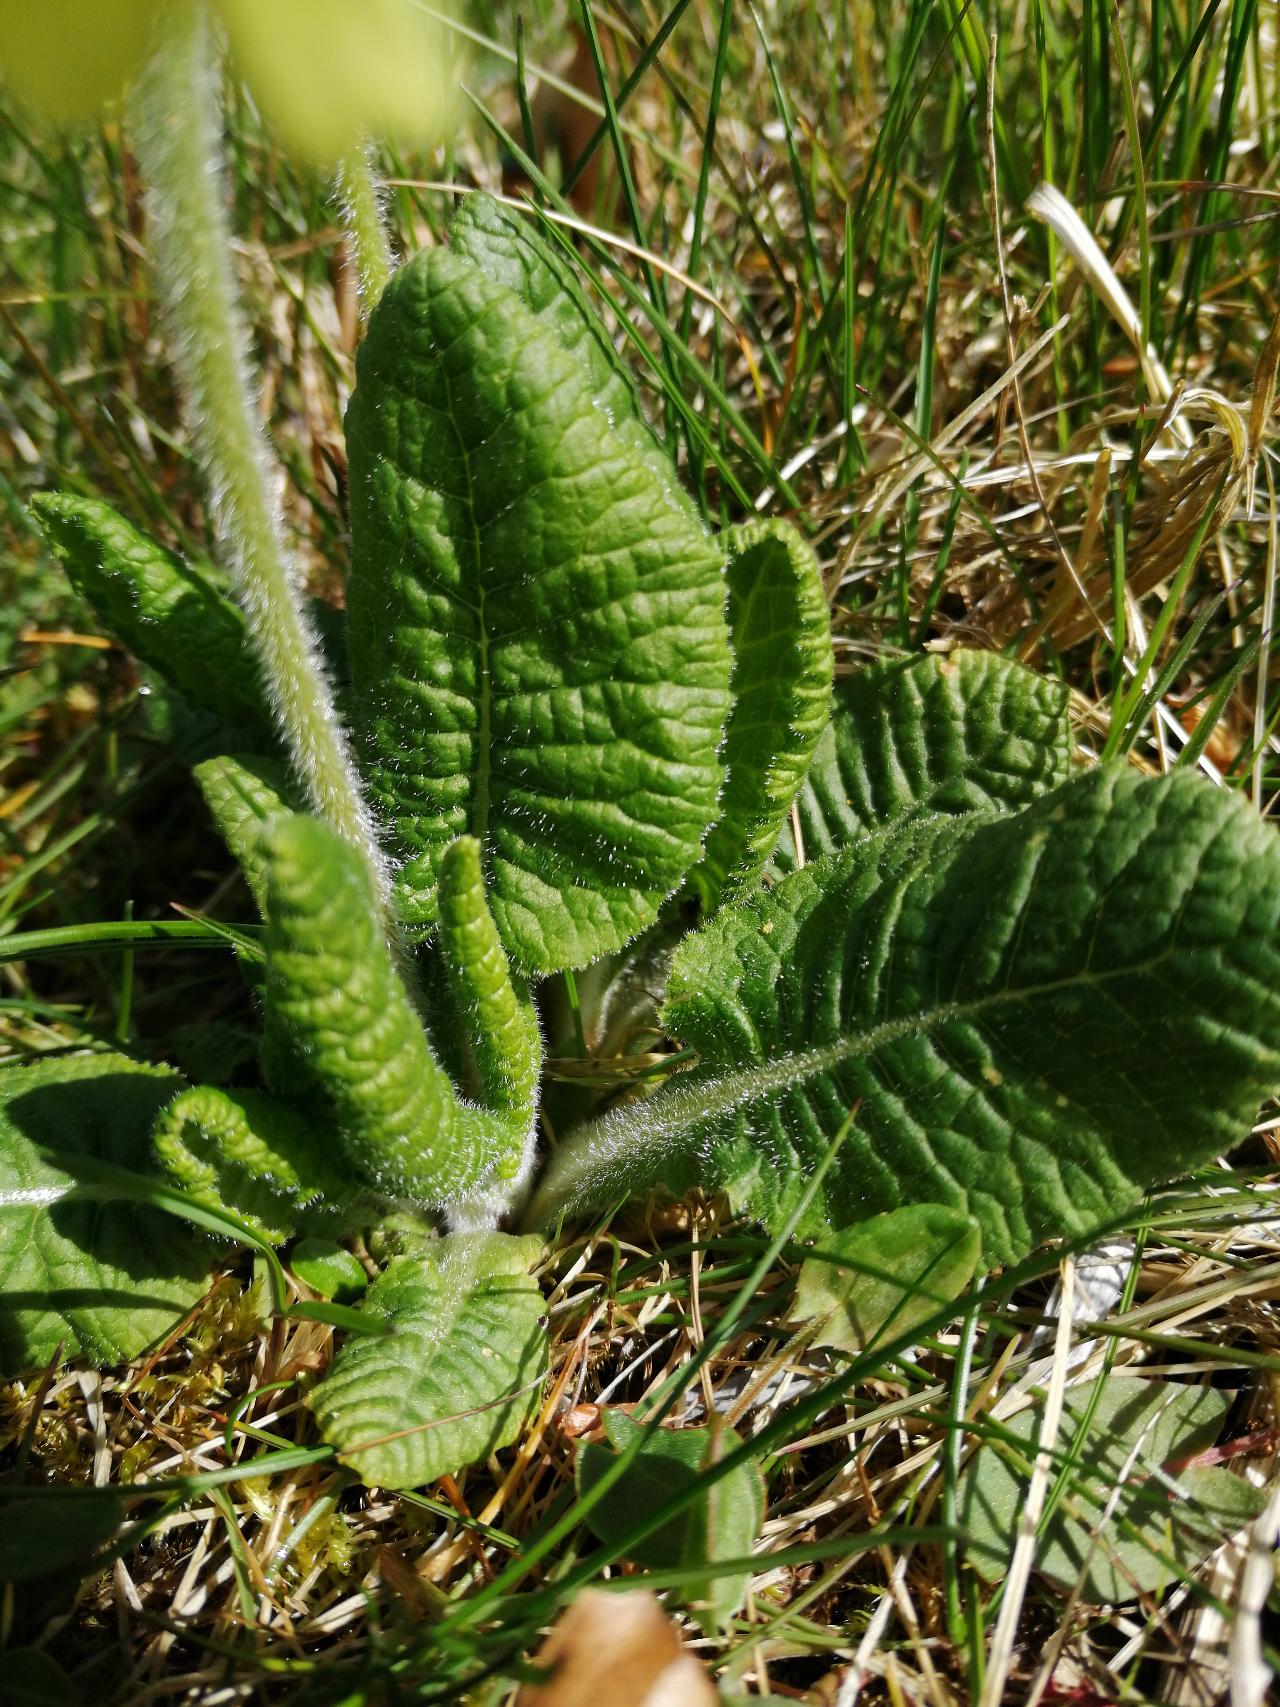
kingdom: Plantae
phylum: Tracheophyta
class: Magnoliopsida
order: Ericales
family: Primulaceae
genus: Primula
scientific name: Primula elatior
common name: Fladkravet kodriver
